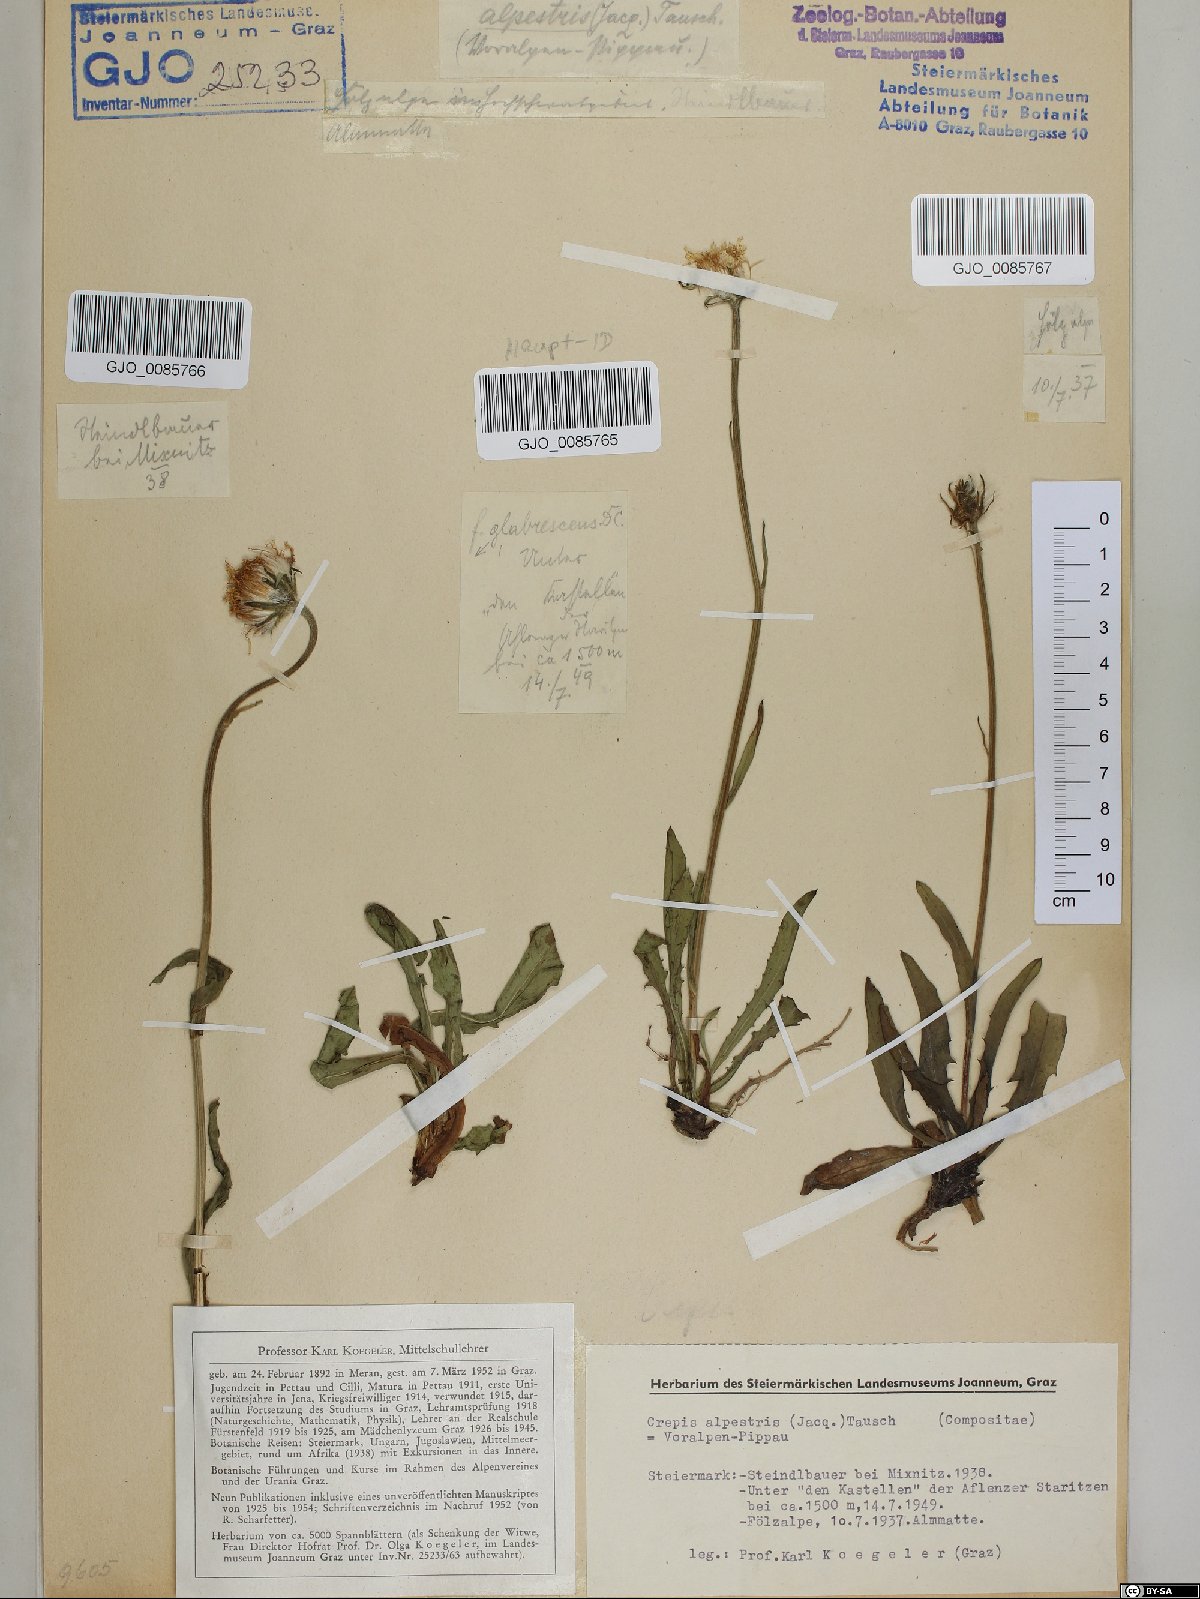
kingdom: Plantae
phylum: Tracheophyta
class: Magnoliopsida
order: Asterales
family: Asteraceae
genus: Crepis
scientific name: Crepis alpestris
